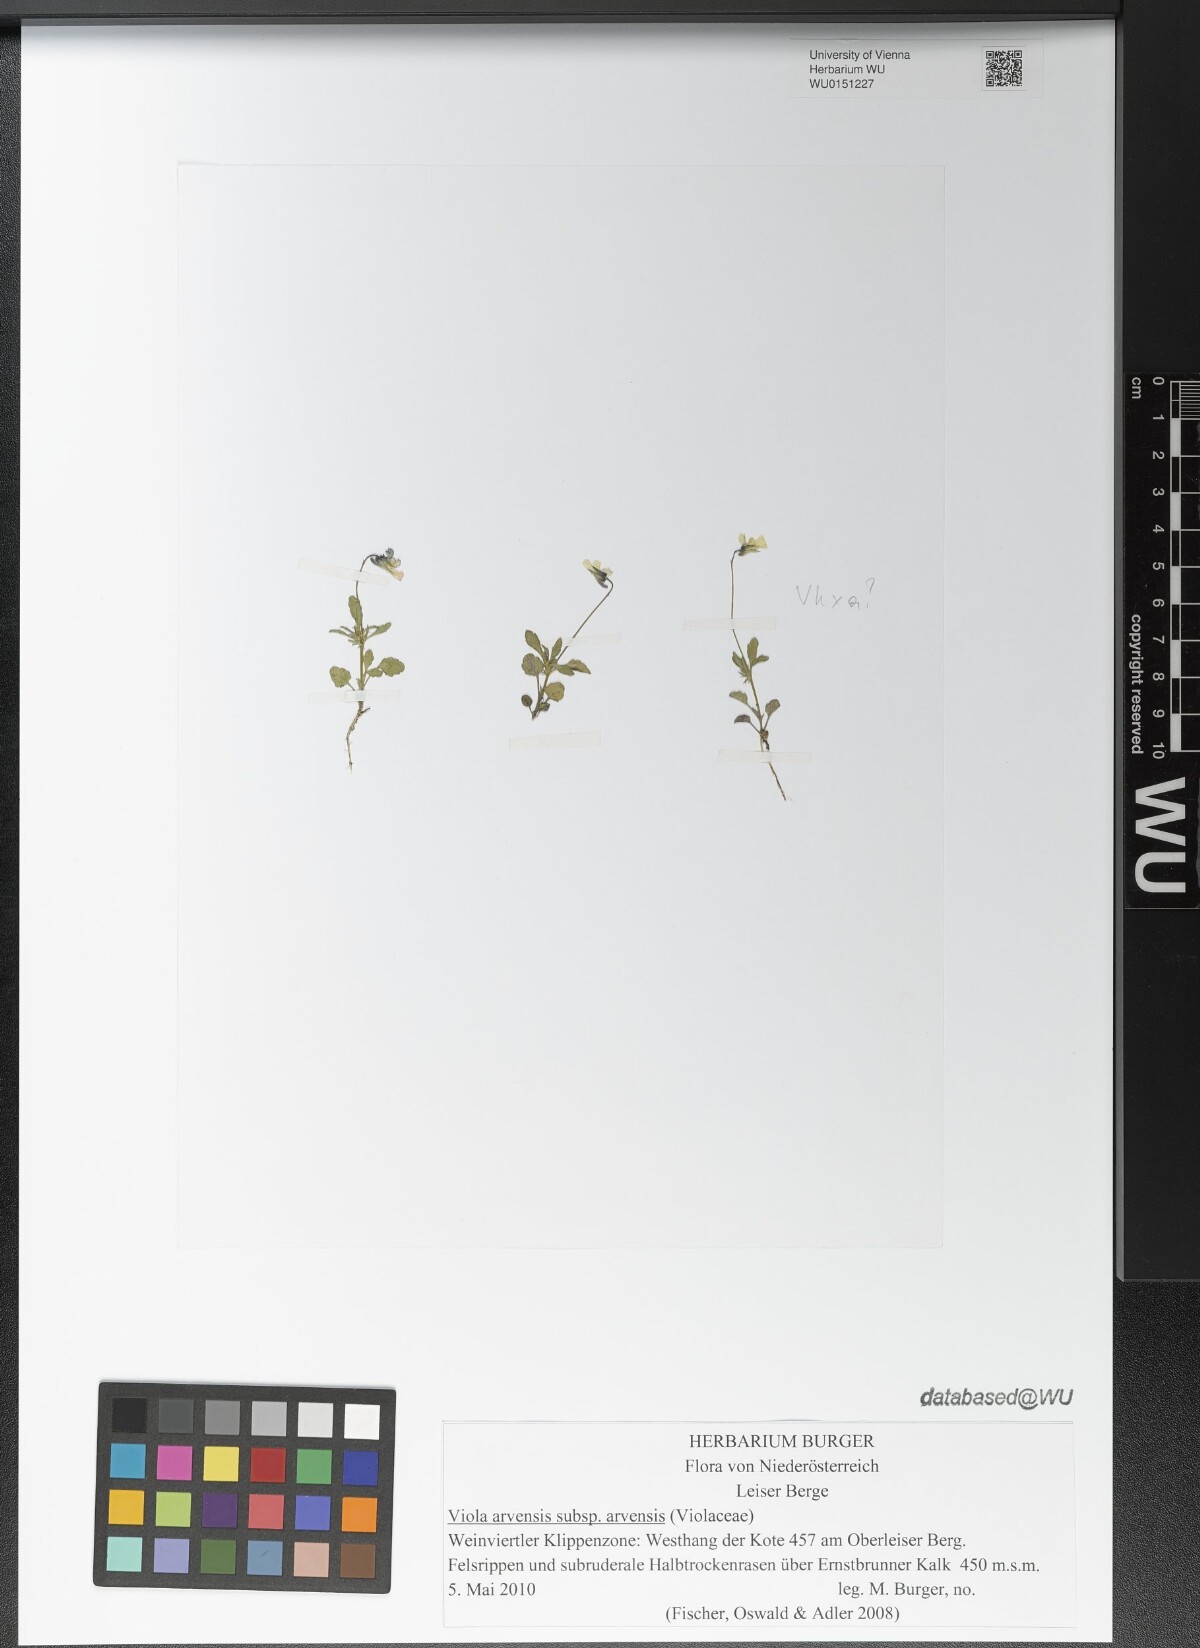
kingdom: Plantae
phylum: Tracheophyta
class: Magnoliopsida
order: Malpighiales
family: Violaceae
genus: Viola
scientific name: Viola arvensis
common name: Field pansy
